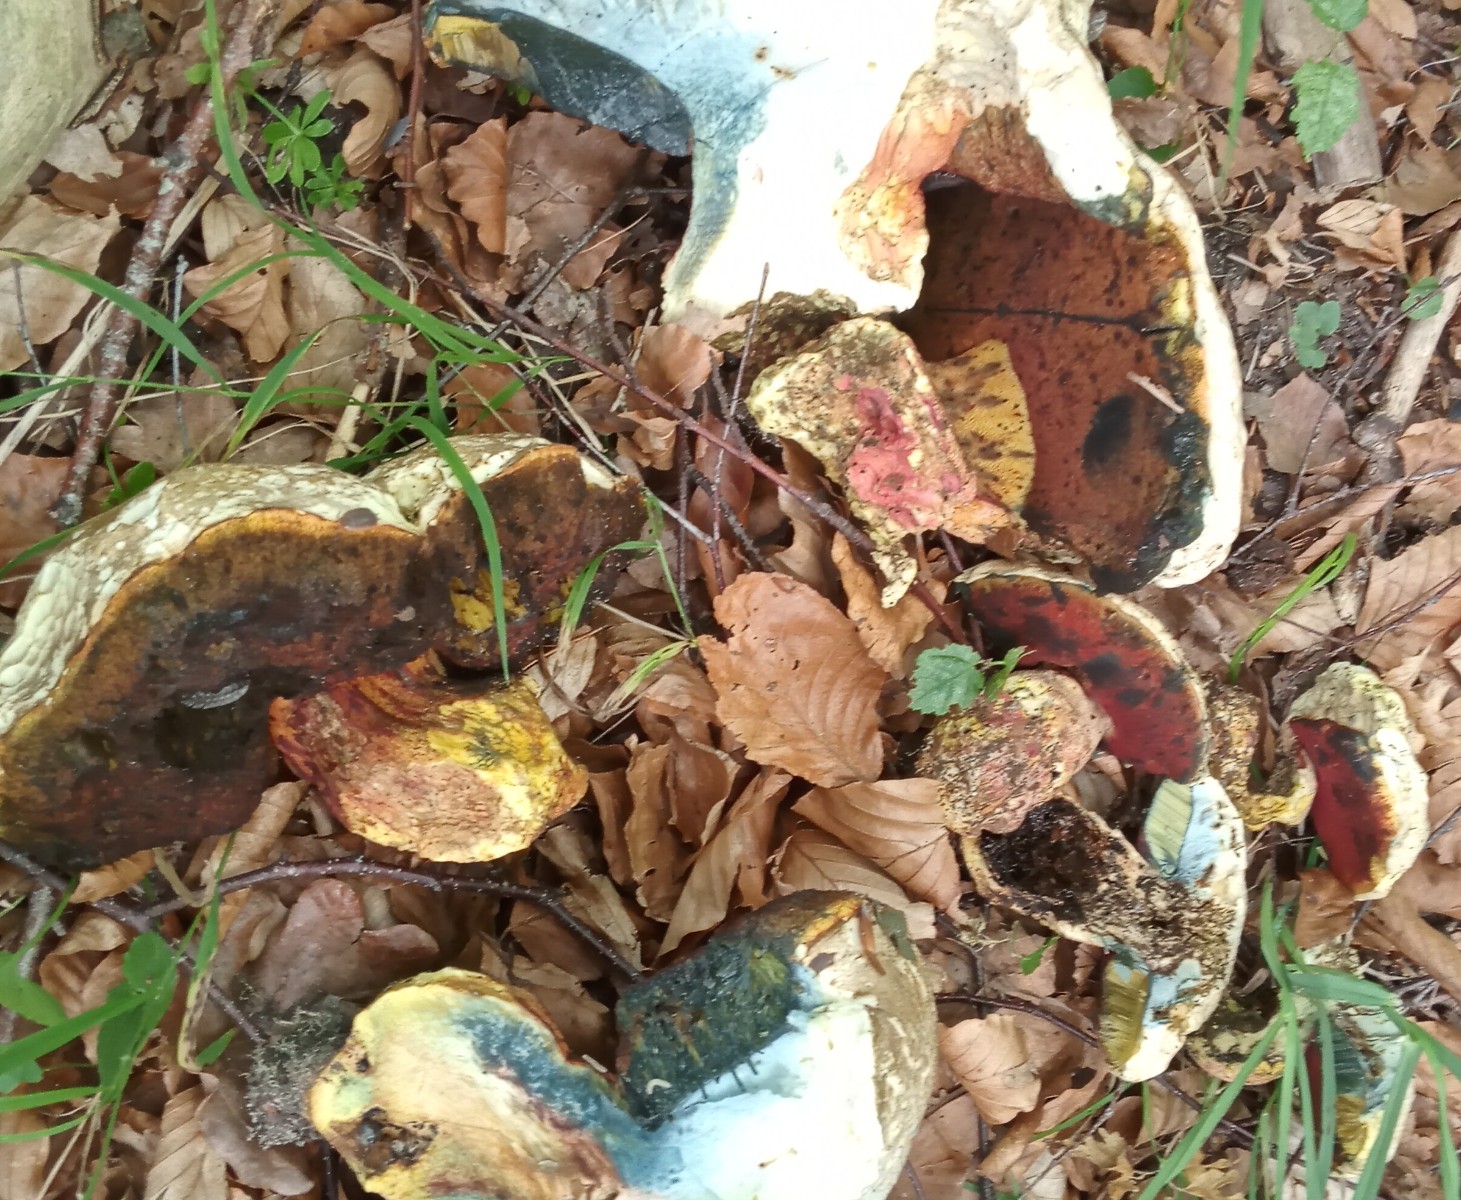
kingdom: Fungi
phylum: Basidiomycota
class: Agaricomycetes
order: Boletales
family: Boletaceae
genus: Rubroboletus
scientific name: Rubroboletus satanas
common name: Satans rørhat
